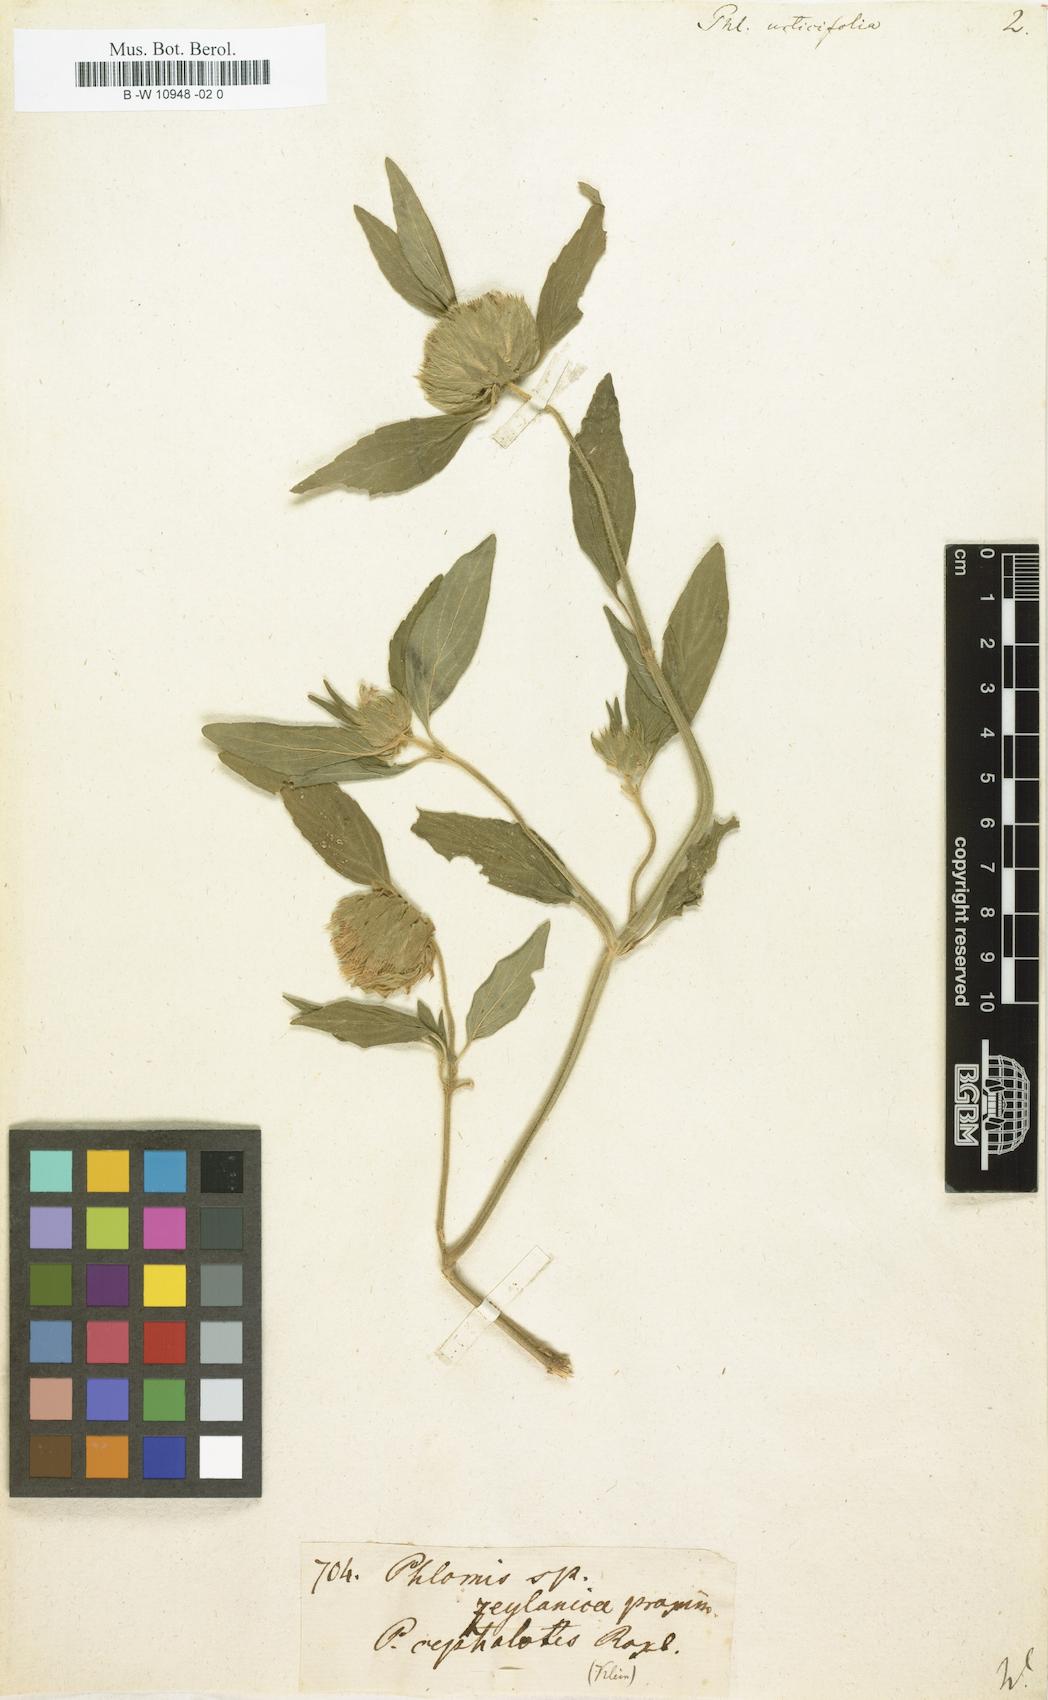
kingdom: Plantae
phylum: Tracheophyta
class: Magnoliopsida
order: Lamiales
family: Lamiaceae
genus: Leucas
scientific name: Leucas urticifolia
